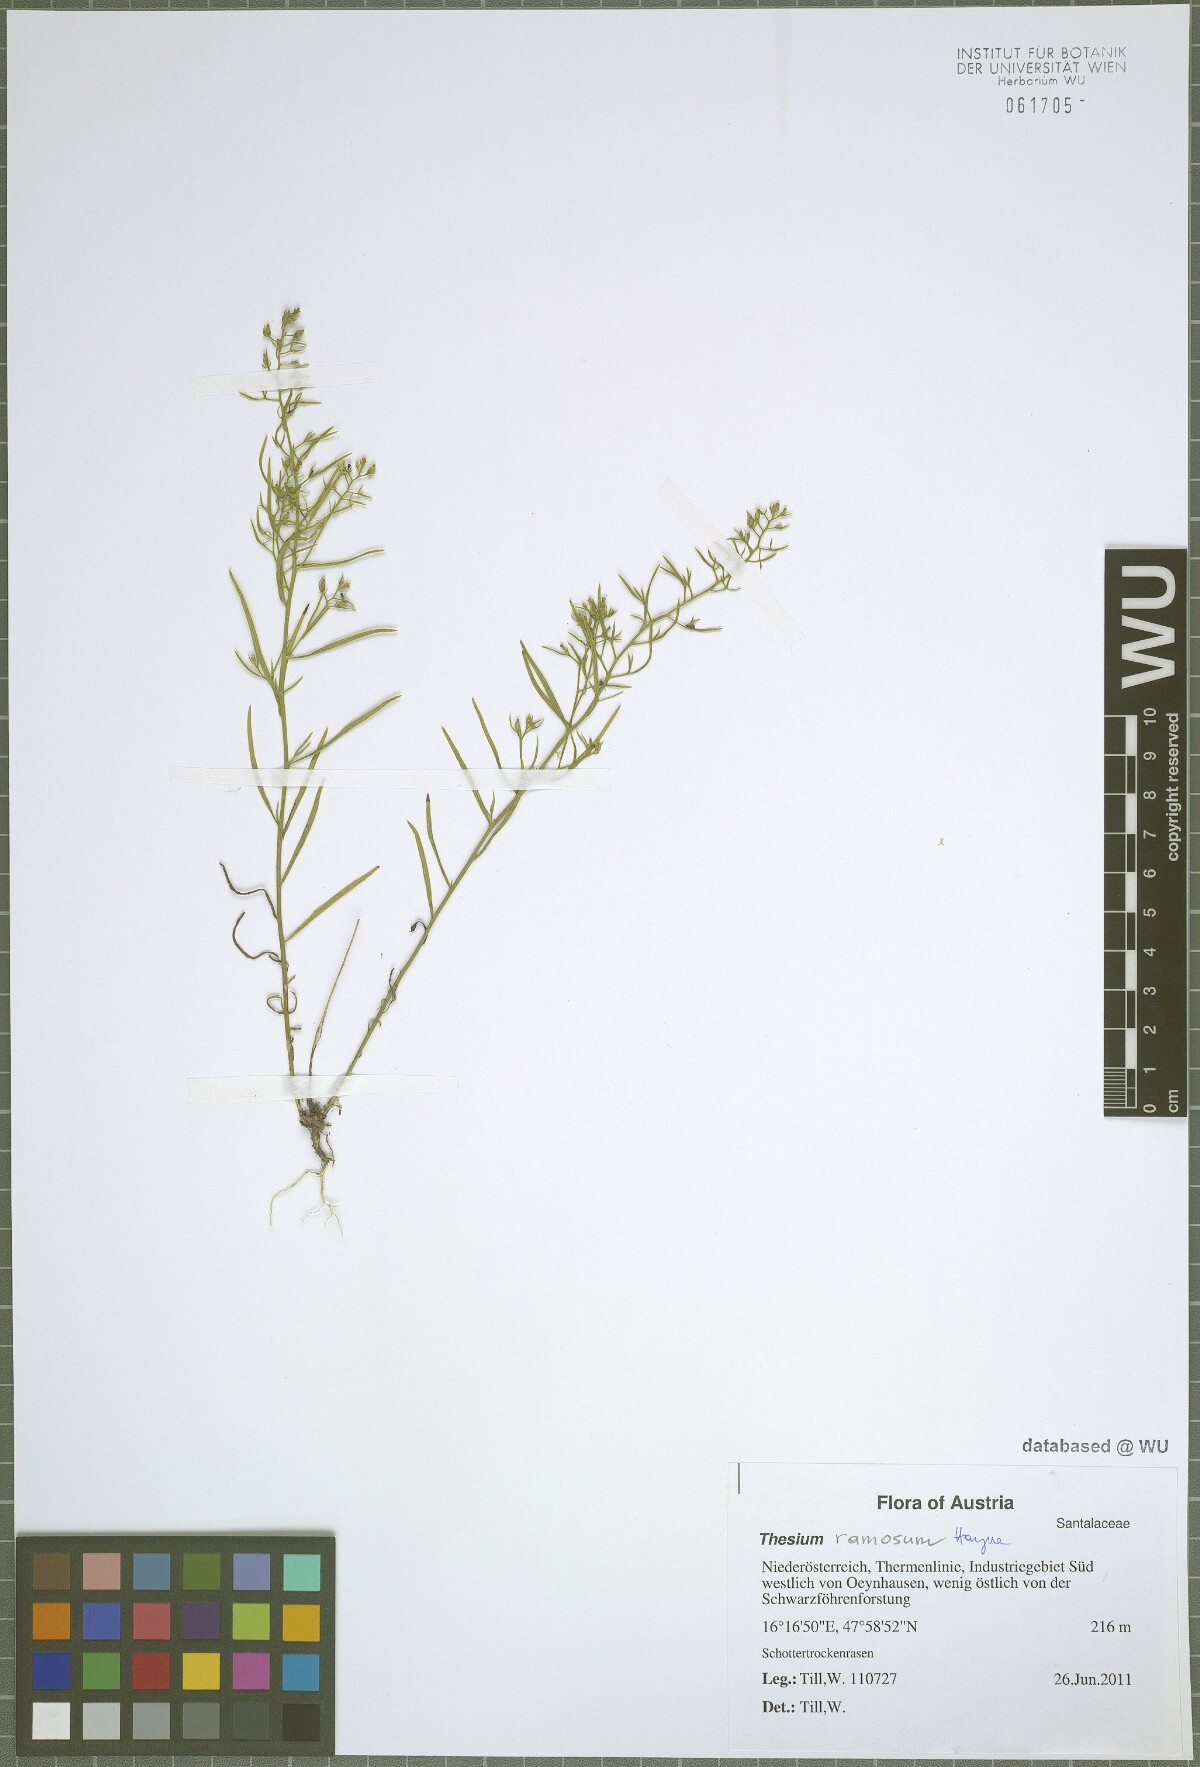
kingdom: Plantae
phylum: Tracheophyta
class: Magnoliopsida
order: Santalales
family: Thesiaceae
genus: Thesium
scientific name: Thesium ramosum
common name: Field thesium
